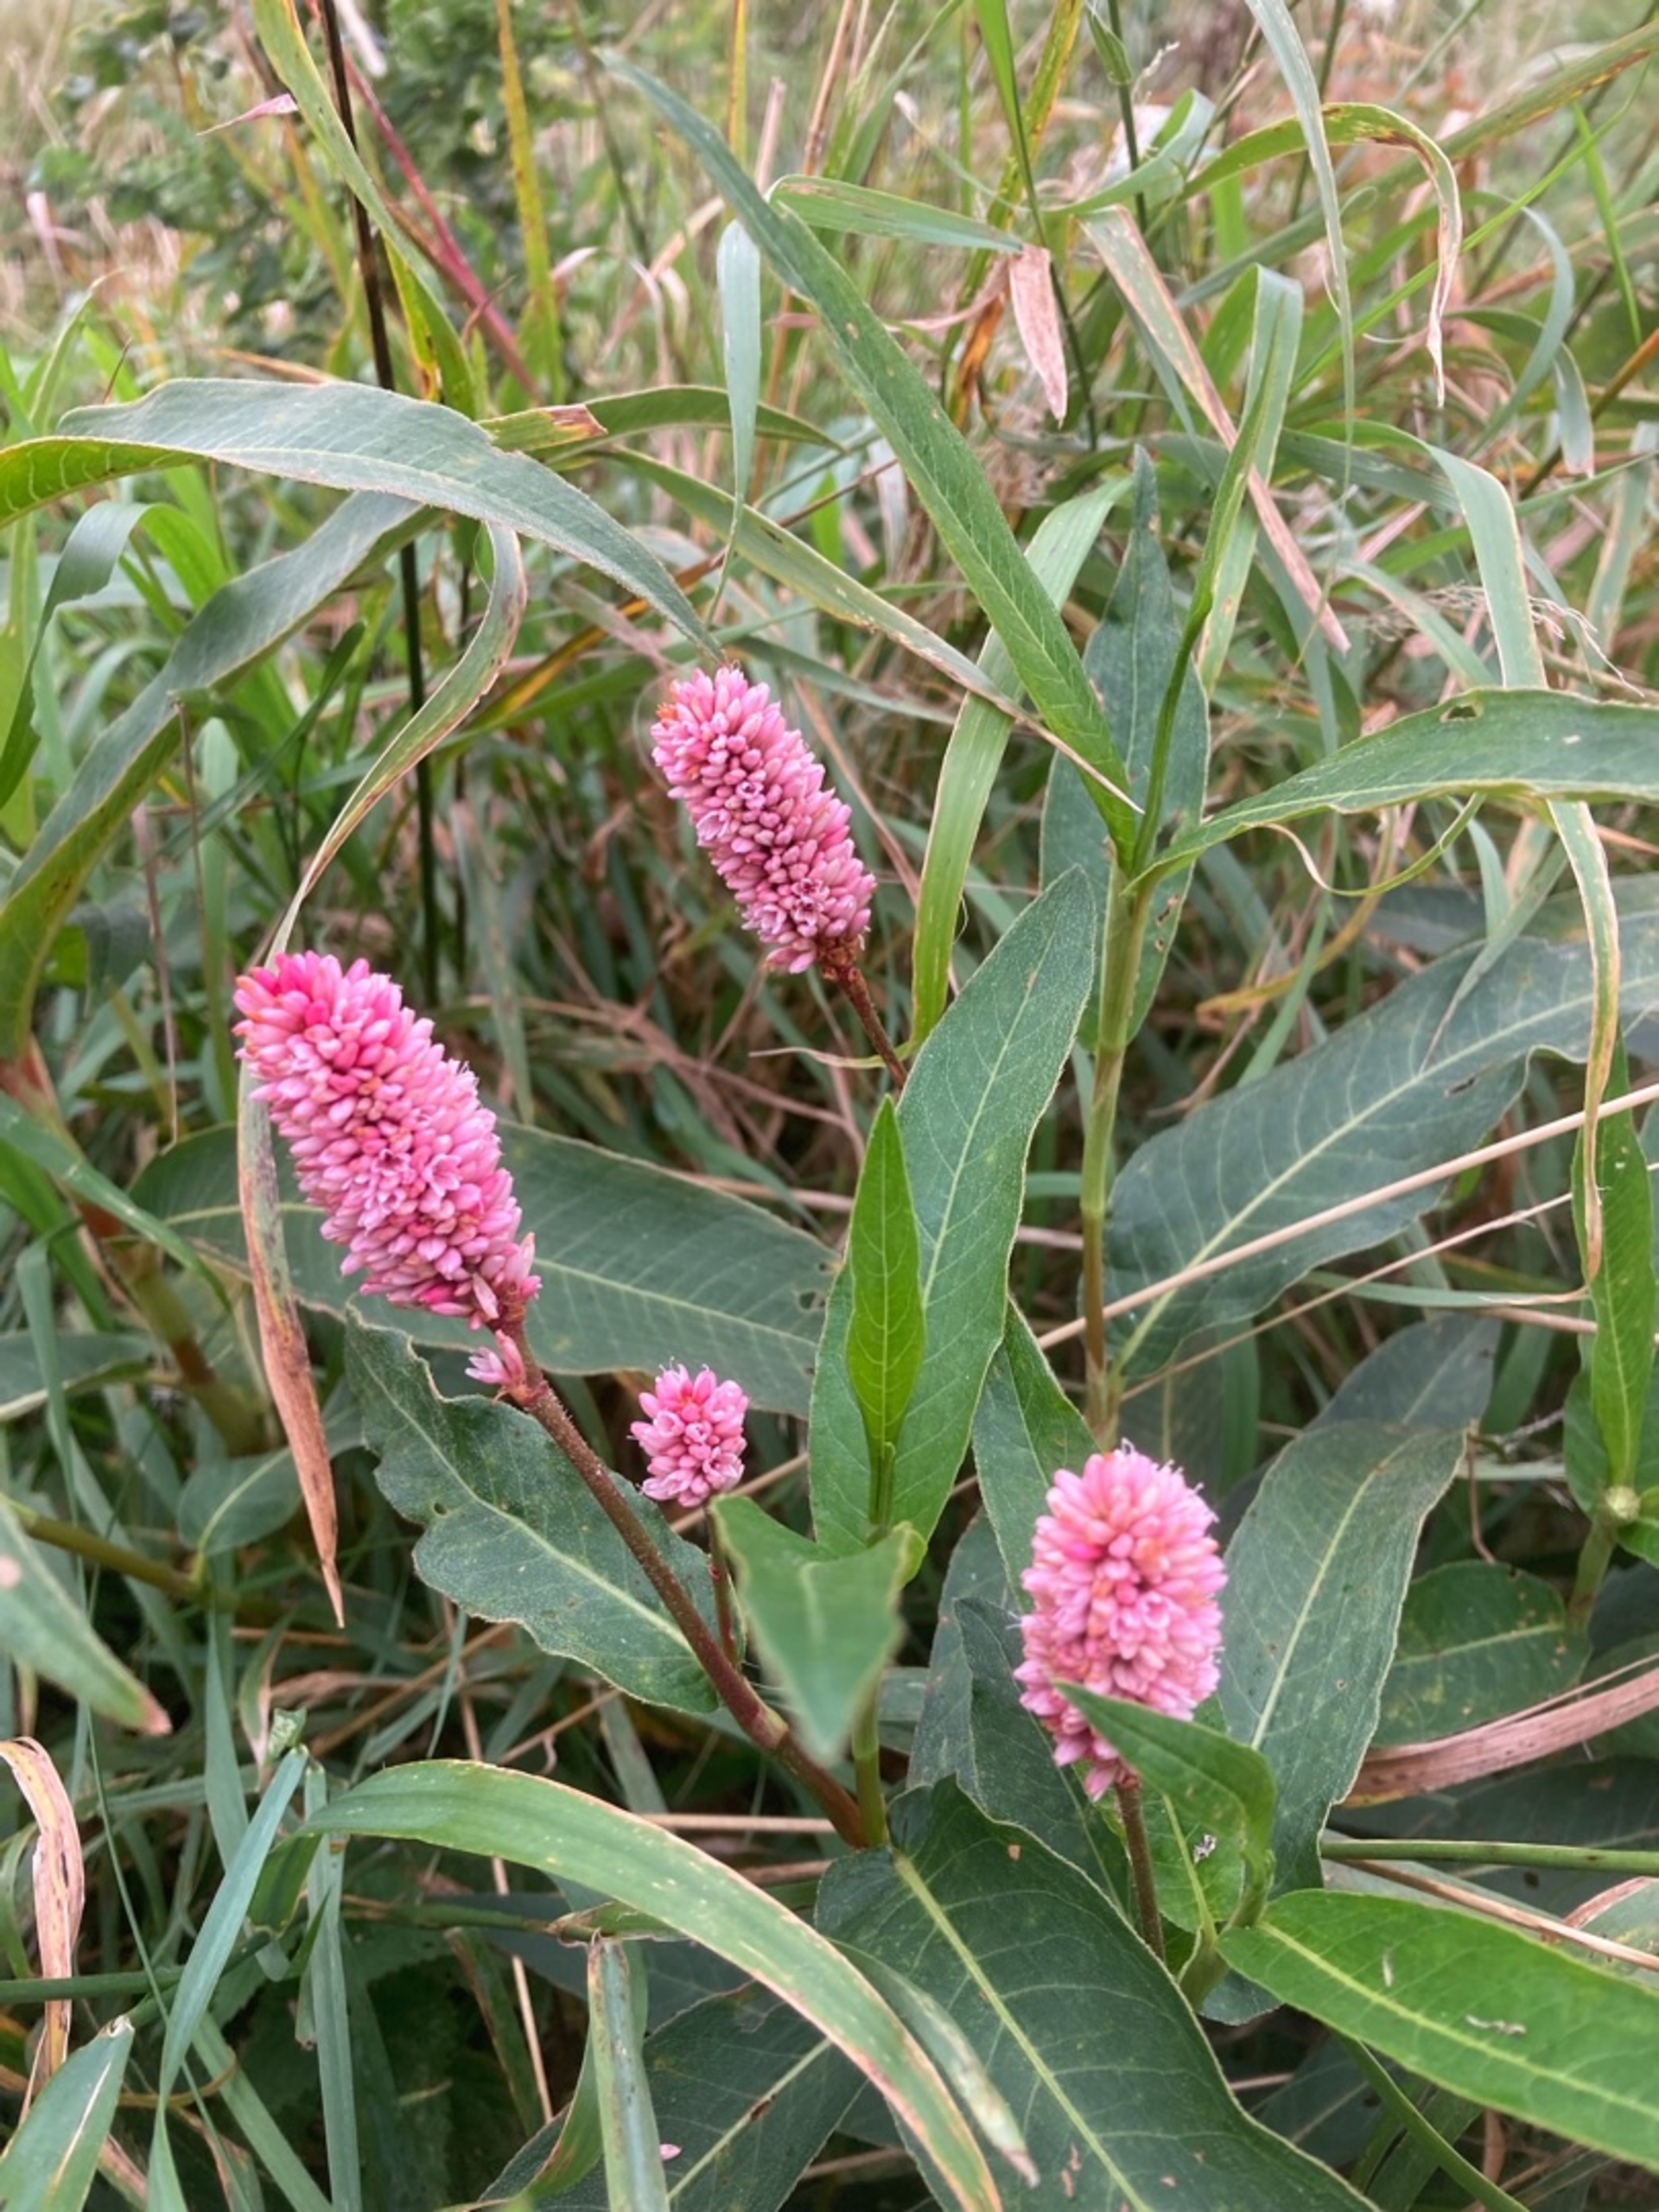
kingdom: Plantae
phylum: Tracheophyta
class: Magnoliopsida
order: Caryophyllales
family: Polygonaceae
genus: Persicaria
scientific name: Persicaria amphibia
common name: Vand-pileurt
